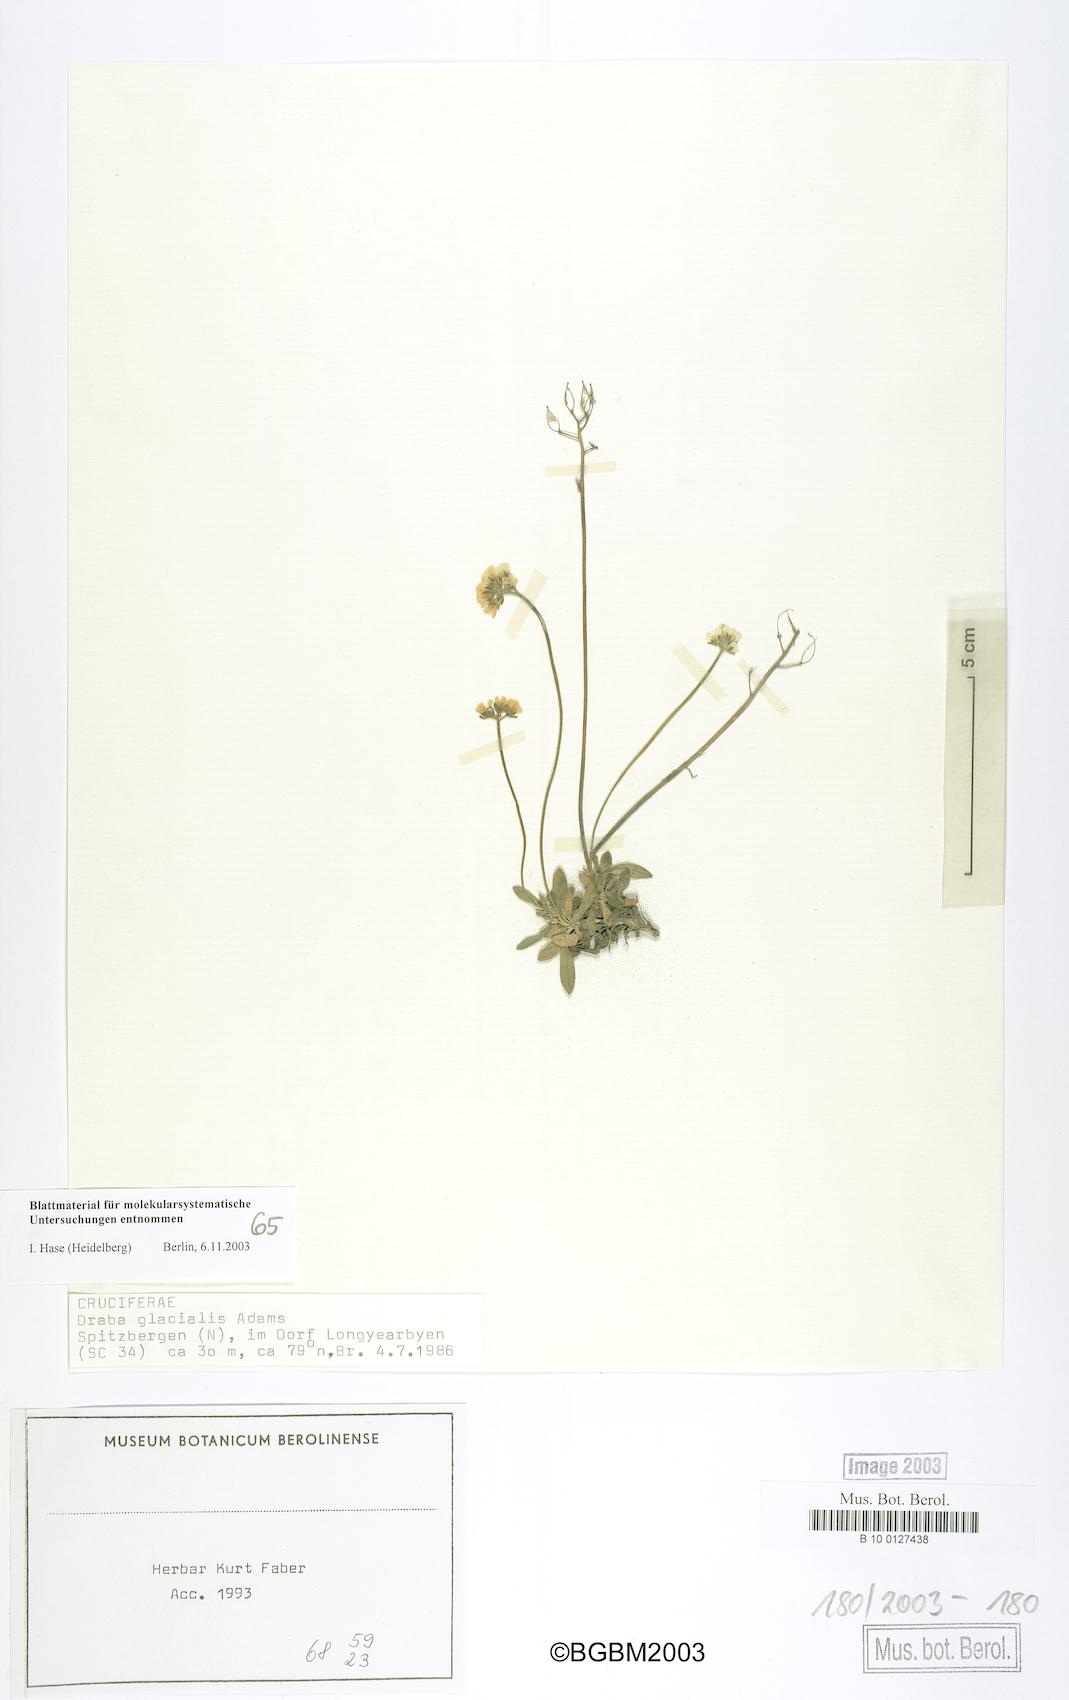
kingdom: Plantae
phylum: Tracheophyta
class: Magnoliopsida
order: Brassicales
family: Brassicaceae
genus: Draba
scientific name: Draba glacialis
